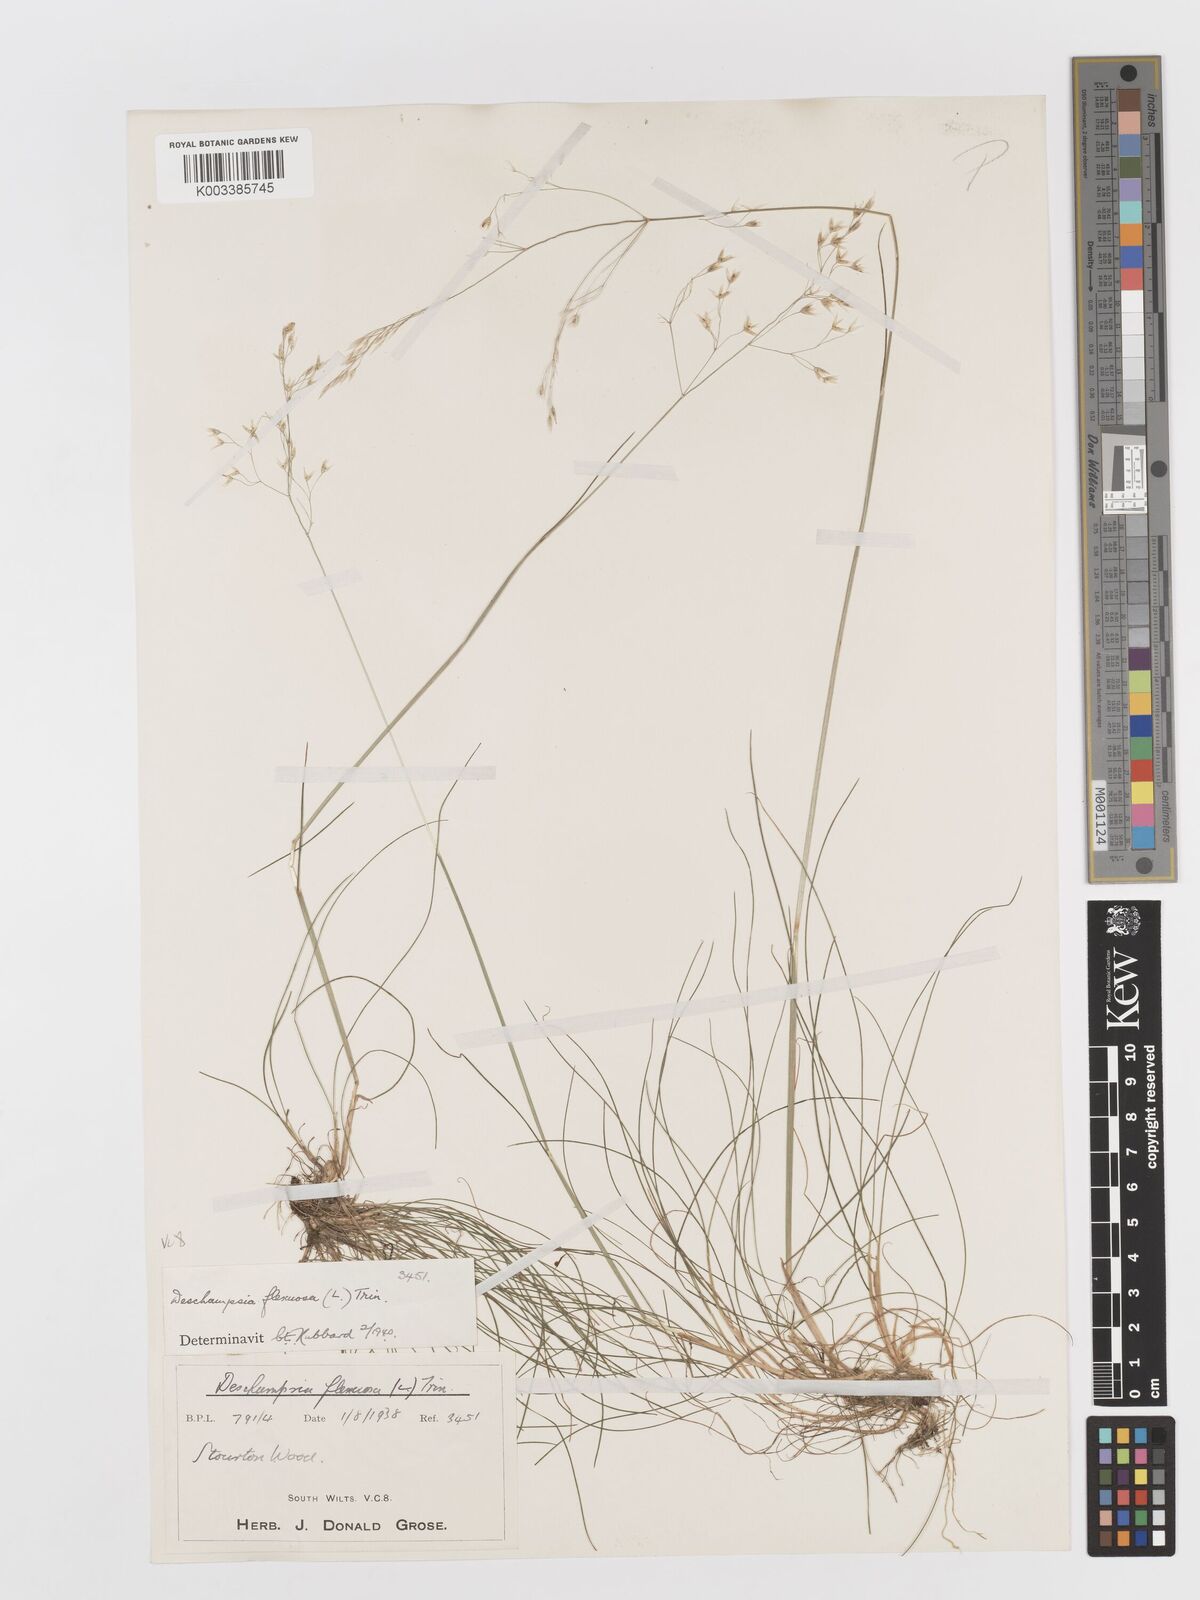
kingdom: Plantae
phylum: Tracheophyta
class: Liliopsida
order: Poales
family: Poaceae
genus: Avenella
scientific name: Avenella flexuosa
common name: Wavy hairgrass
